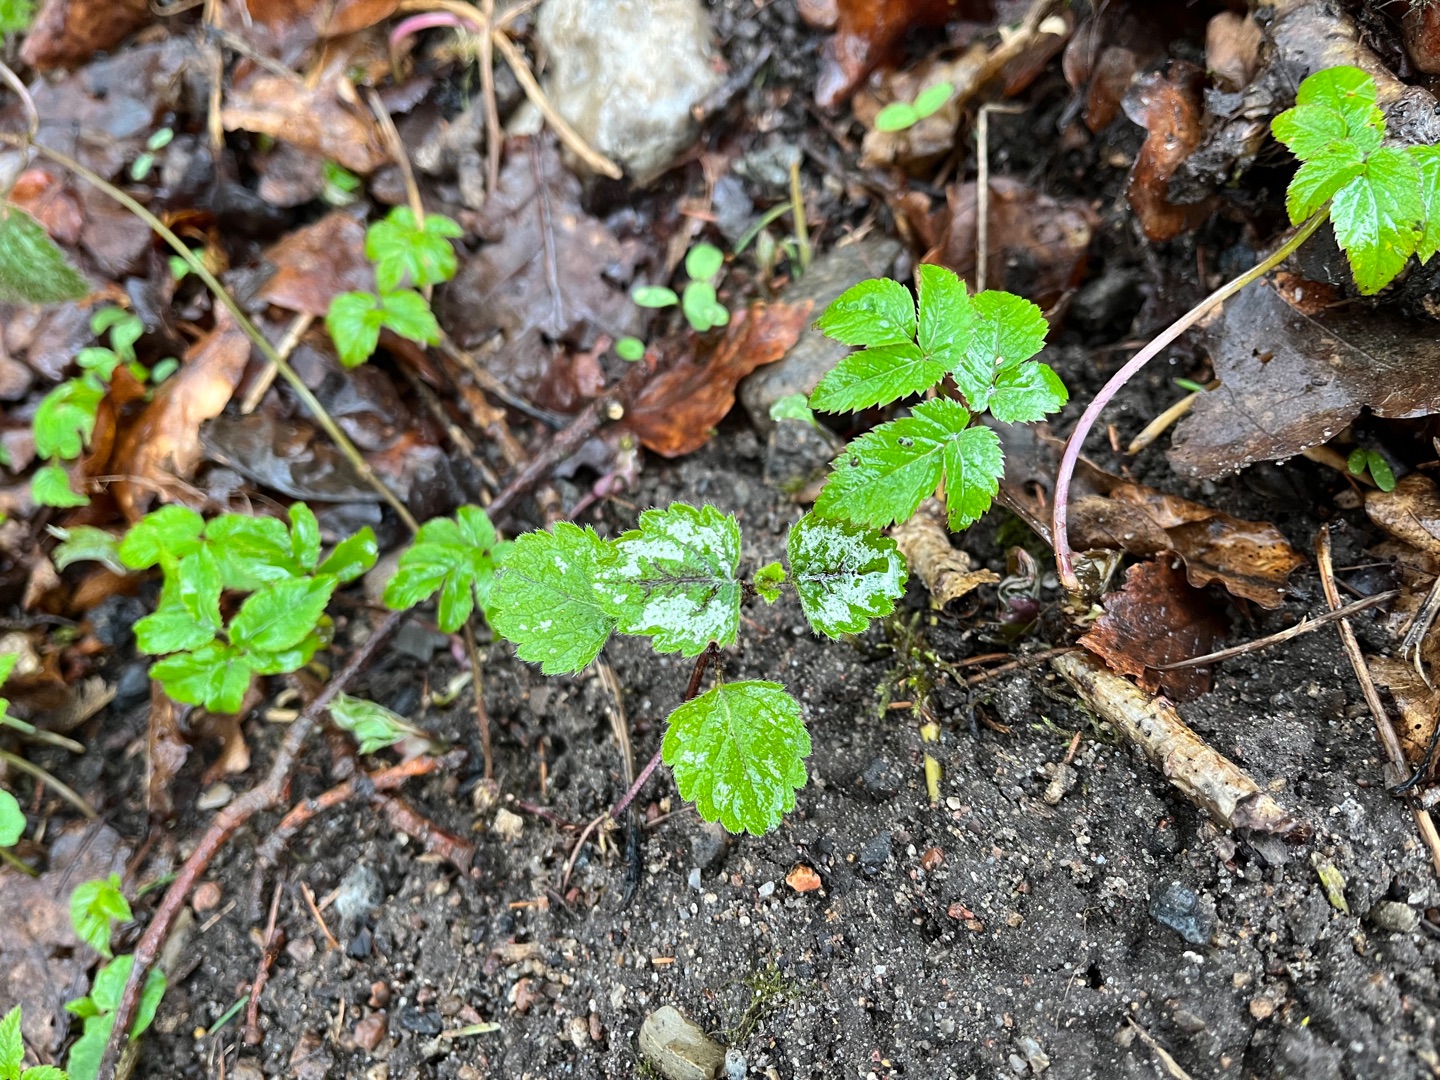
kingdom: Plantae
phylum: Tracheophyta
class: Magnoliopsida
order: Lamiales
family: Lamiaceae
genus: Lamium
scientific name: Lamium galeobdolon
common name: Have-guldnælde
